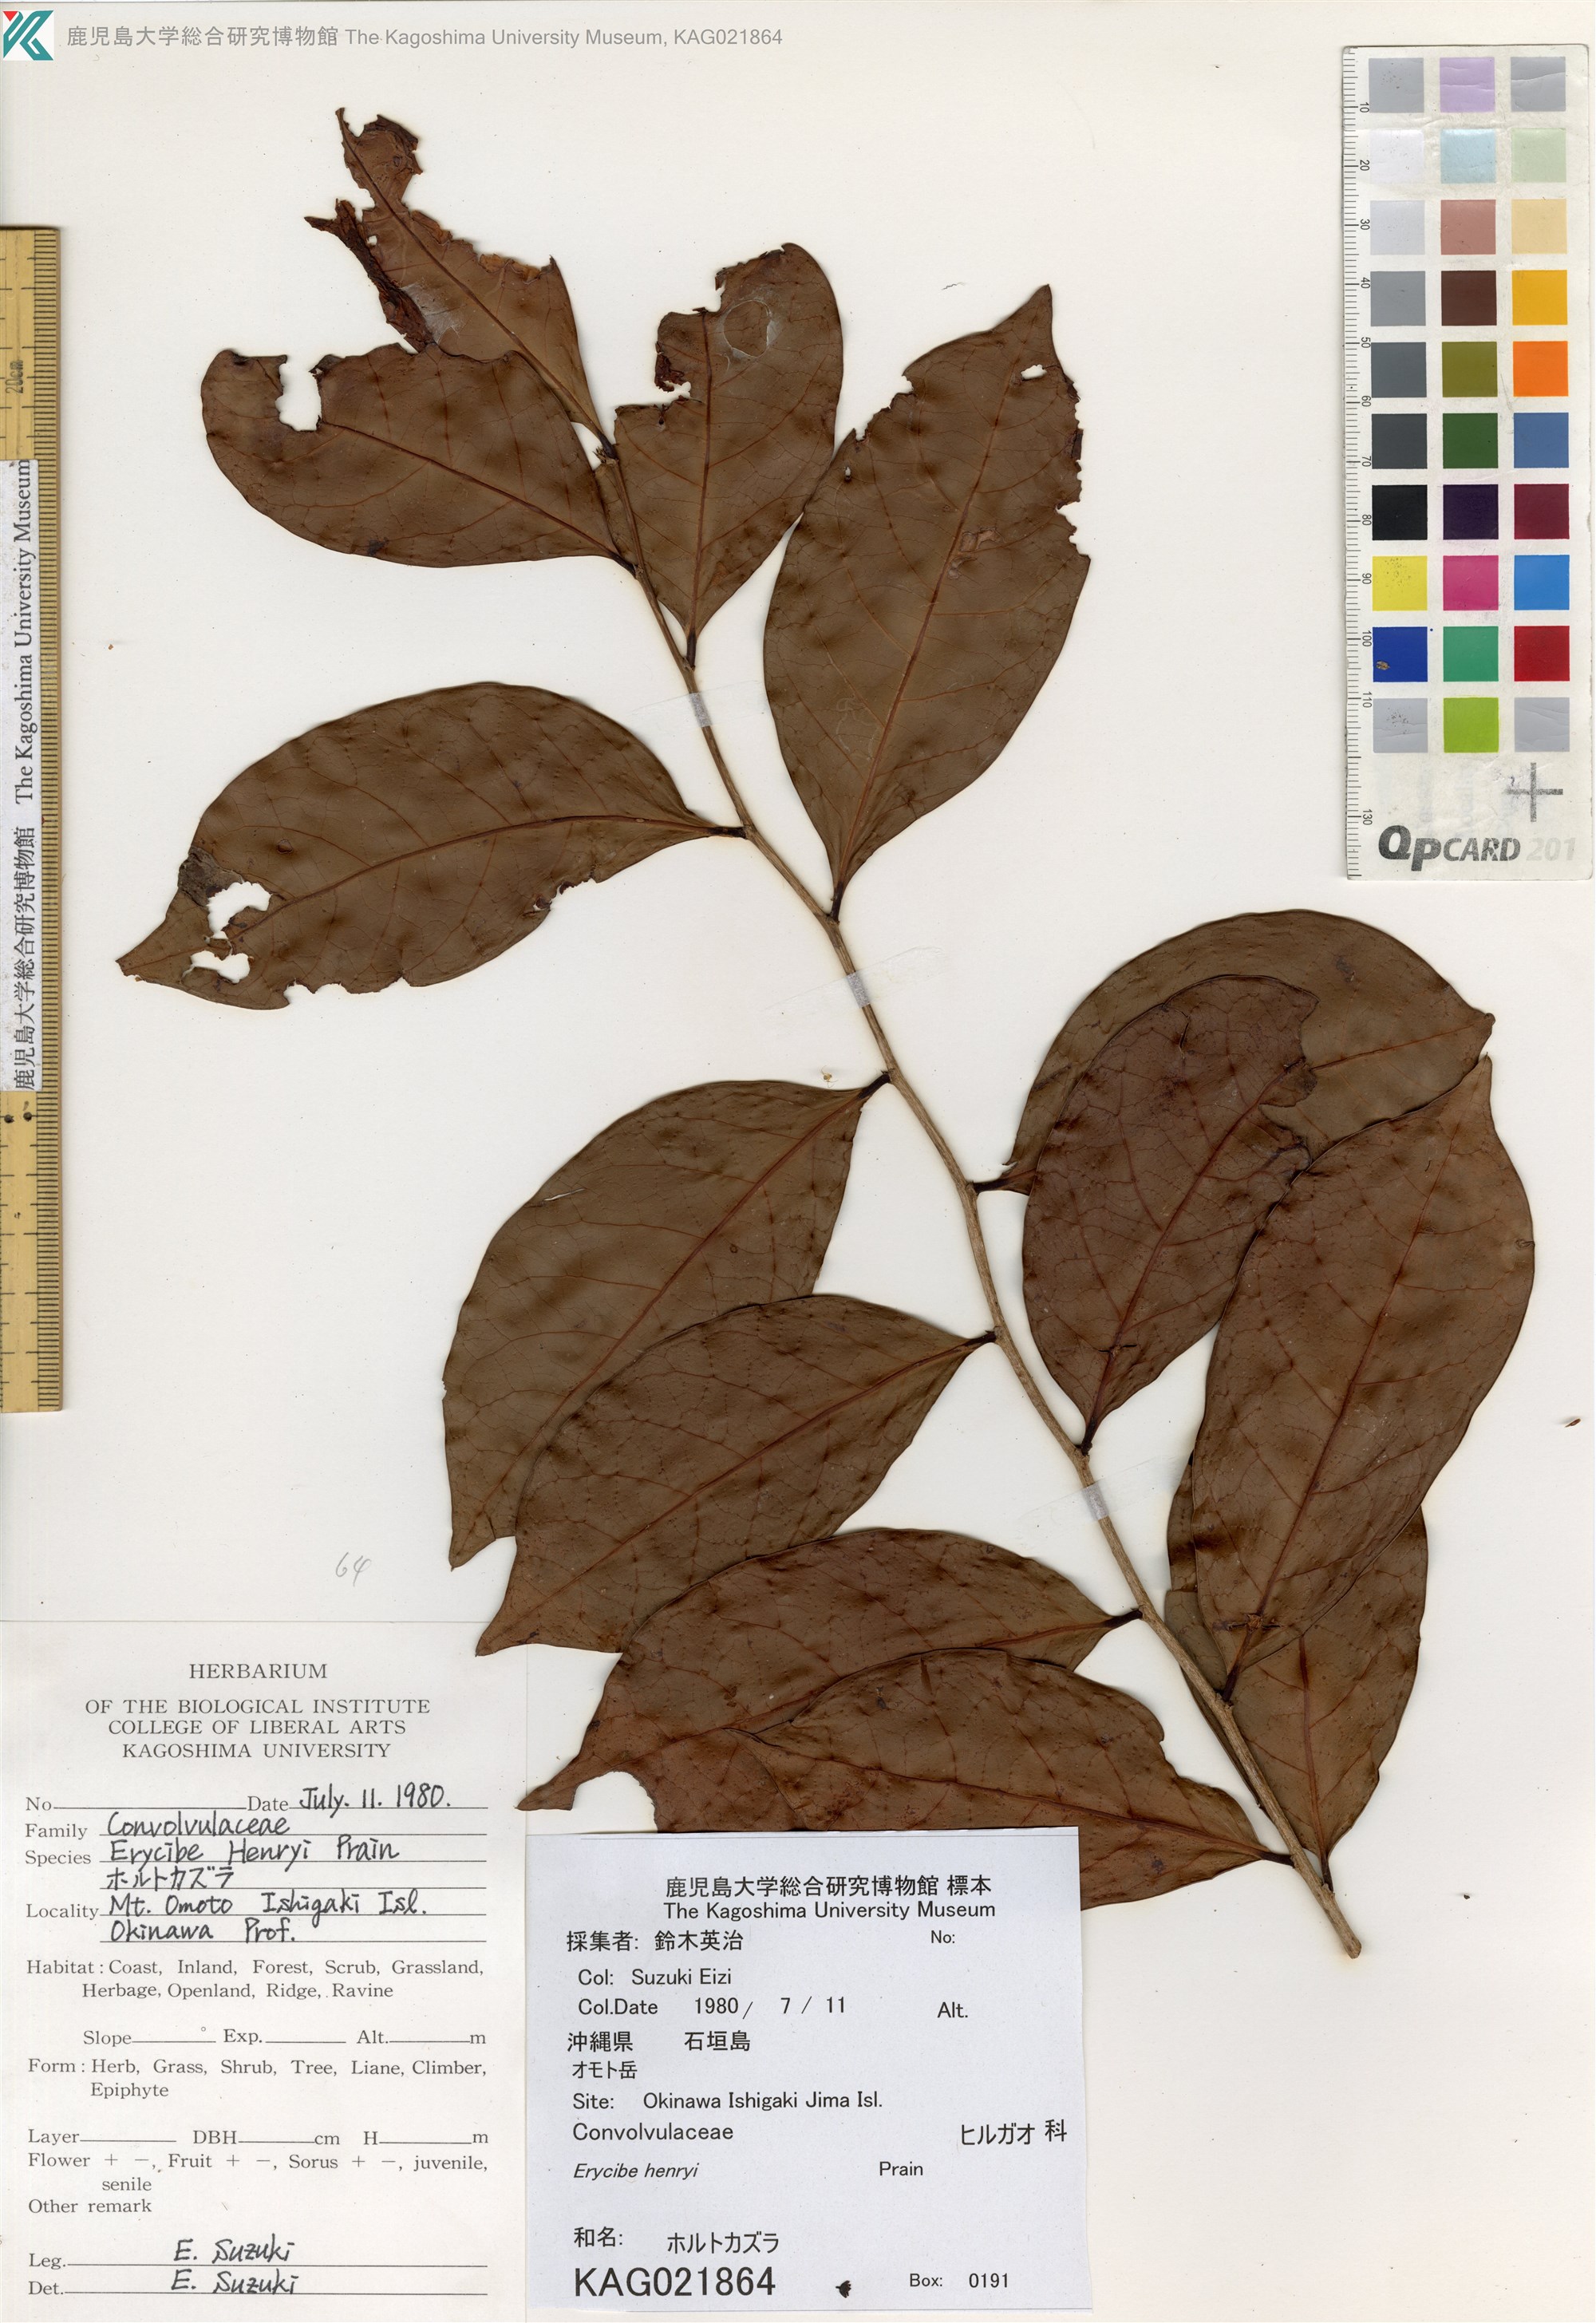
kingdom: Plantae
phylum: Tracheophyta
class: Magnoliopsida
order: Solanales
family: Convolvulaceae
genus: Erycibe
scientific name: Erycibe henryi
